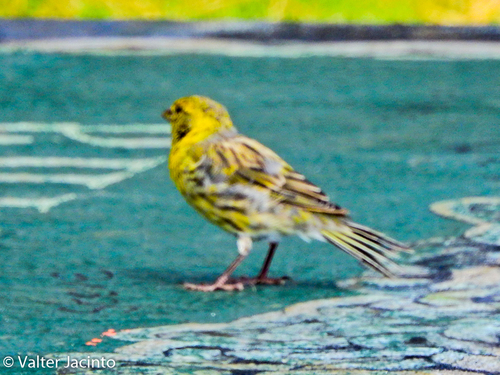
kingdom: Animalia
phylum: Chordata
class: Aves
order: Passeriformes
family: Fringillidae
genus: Serinus
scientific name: Serinus canaria
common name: Atlantic canary
